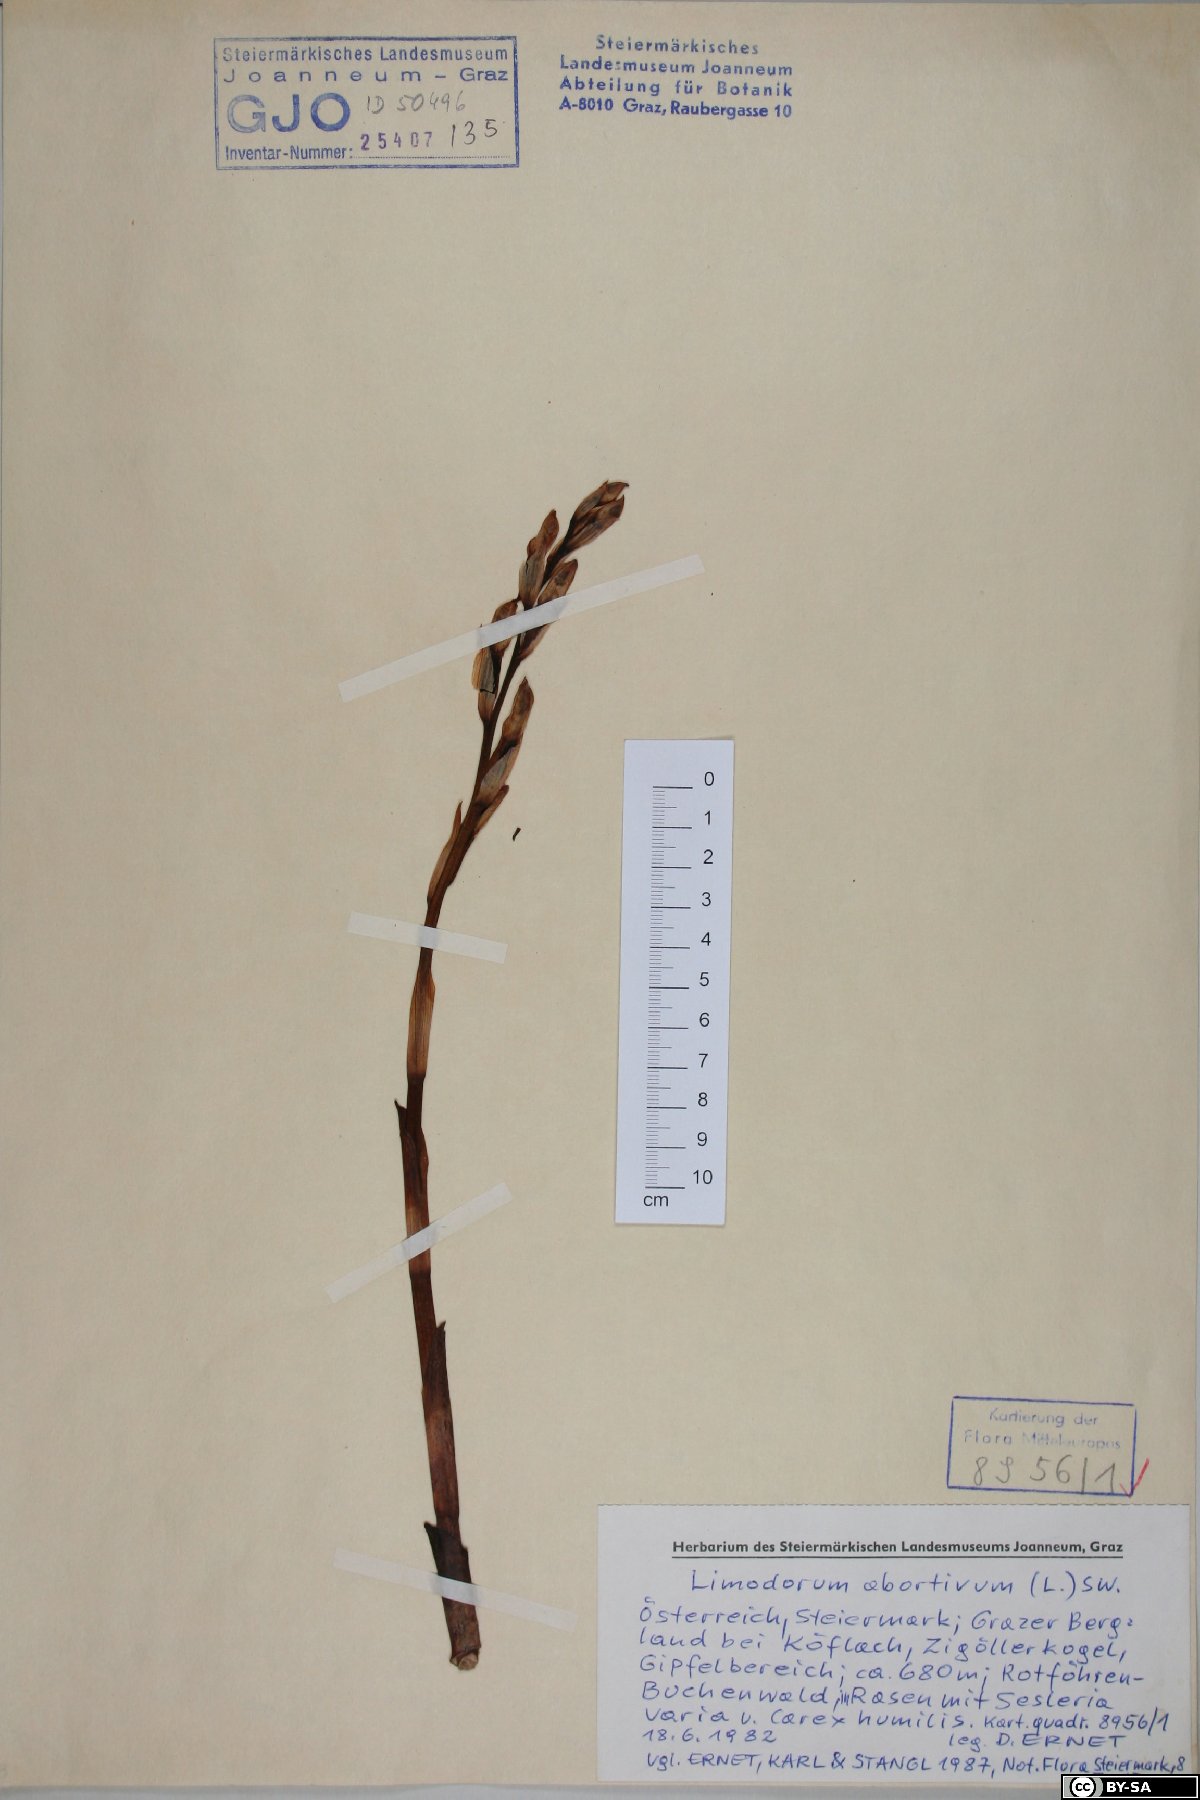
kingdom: Plantae
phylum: Tracheophyta
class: Liliopsida
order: Asparagales
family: Orchidaceae
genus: Limodorum
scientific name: Limodorum abortivum
